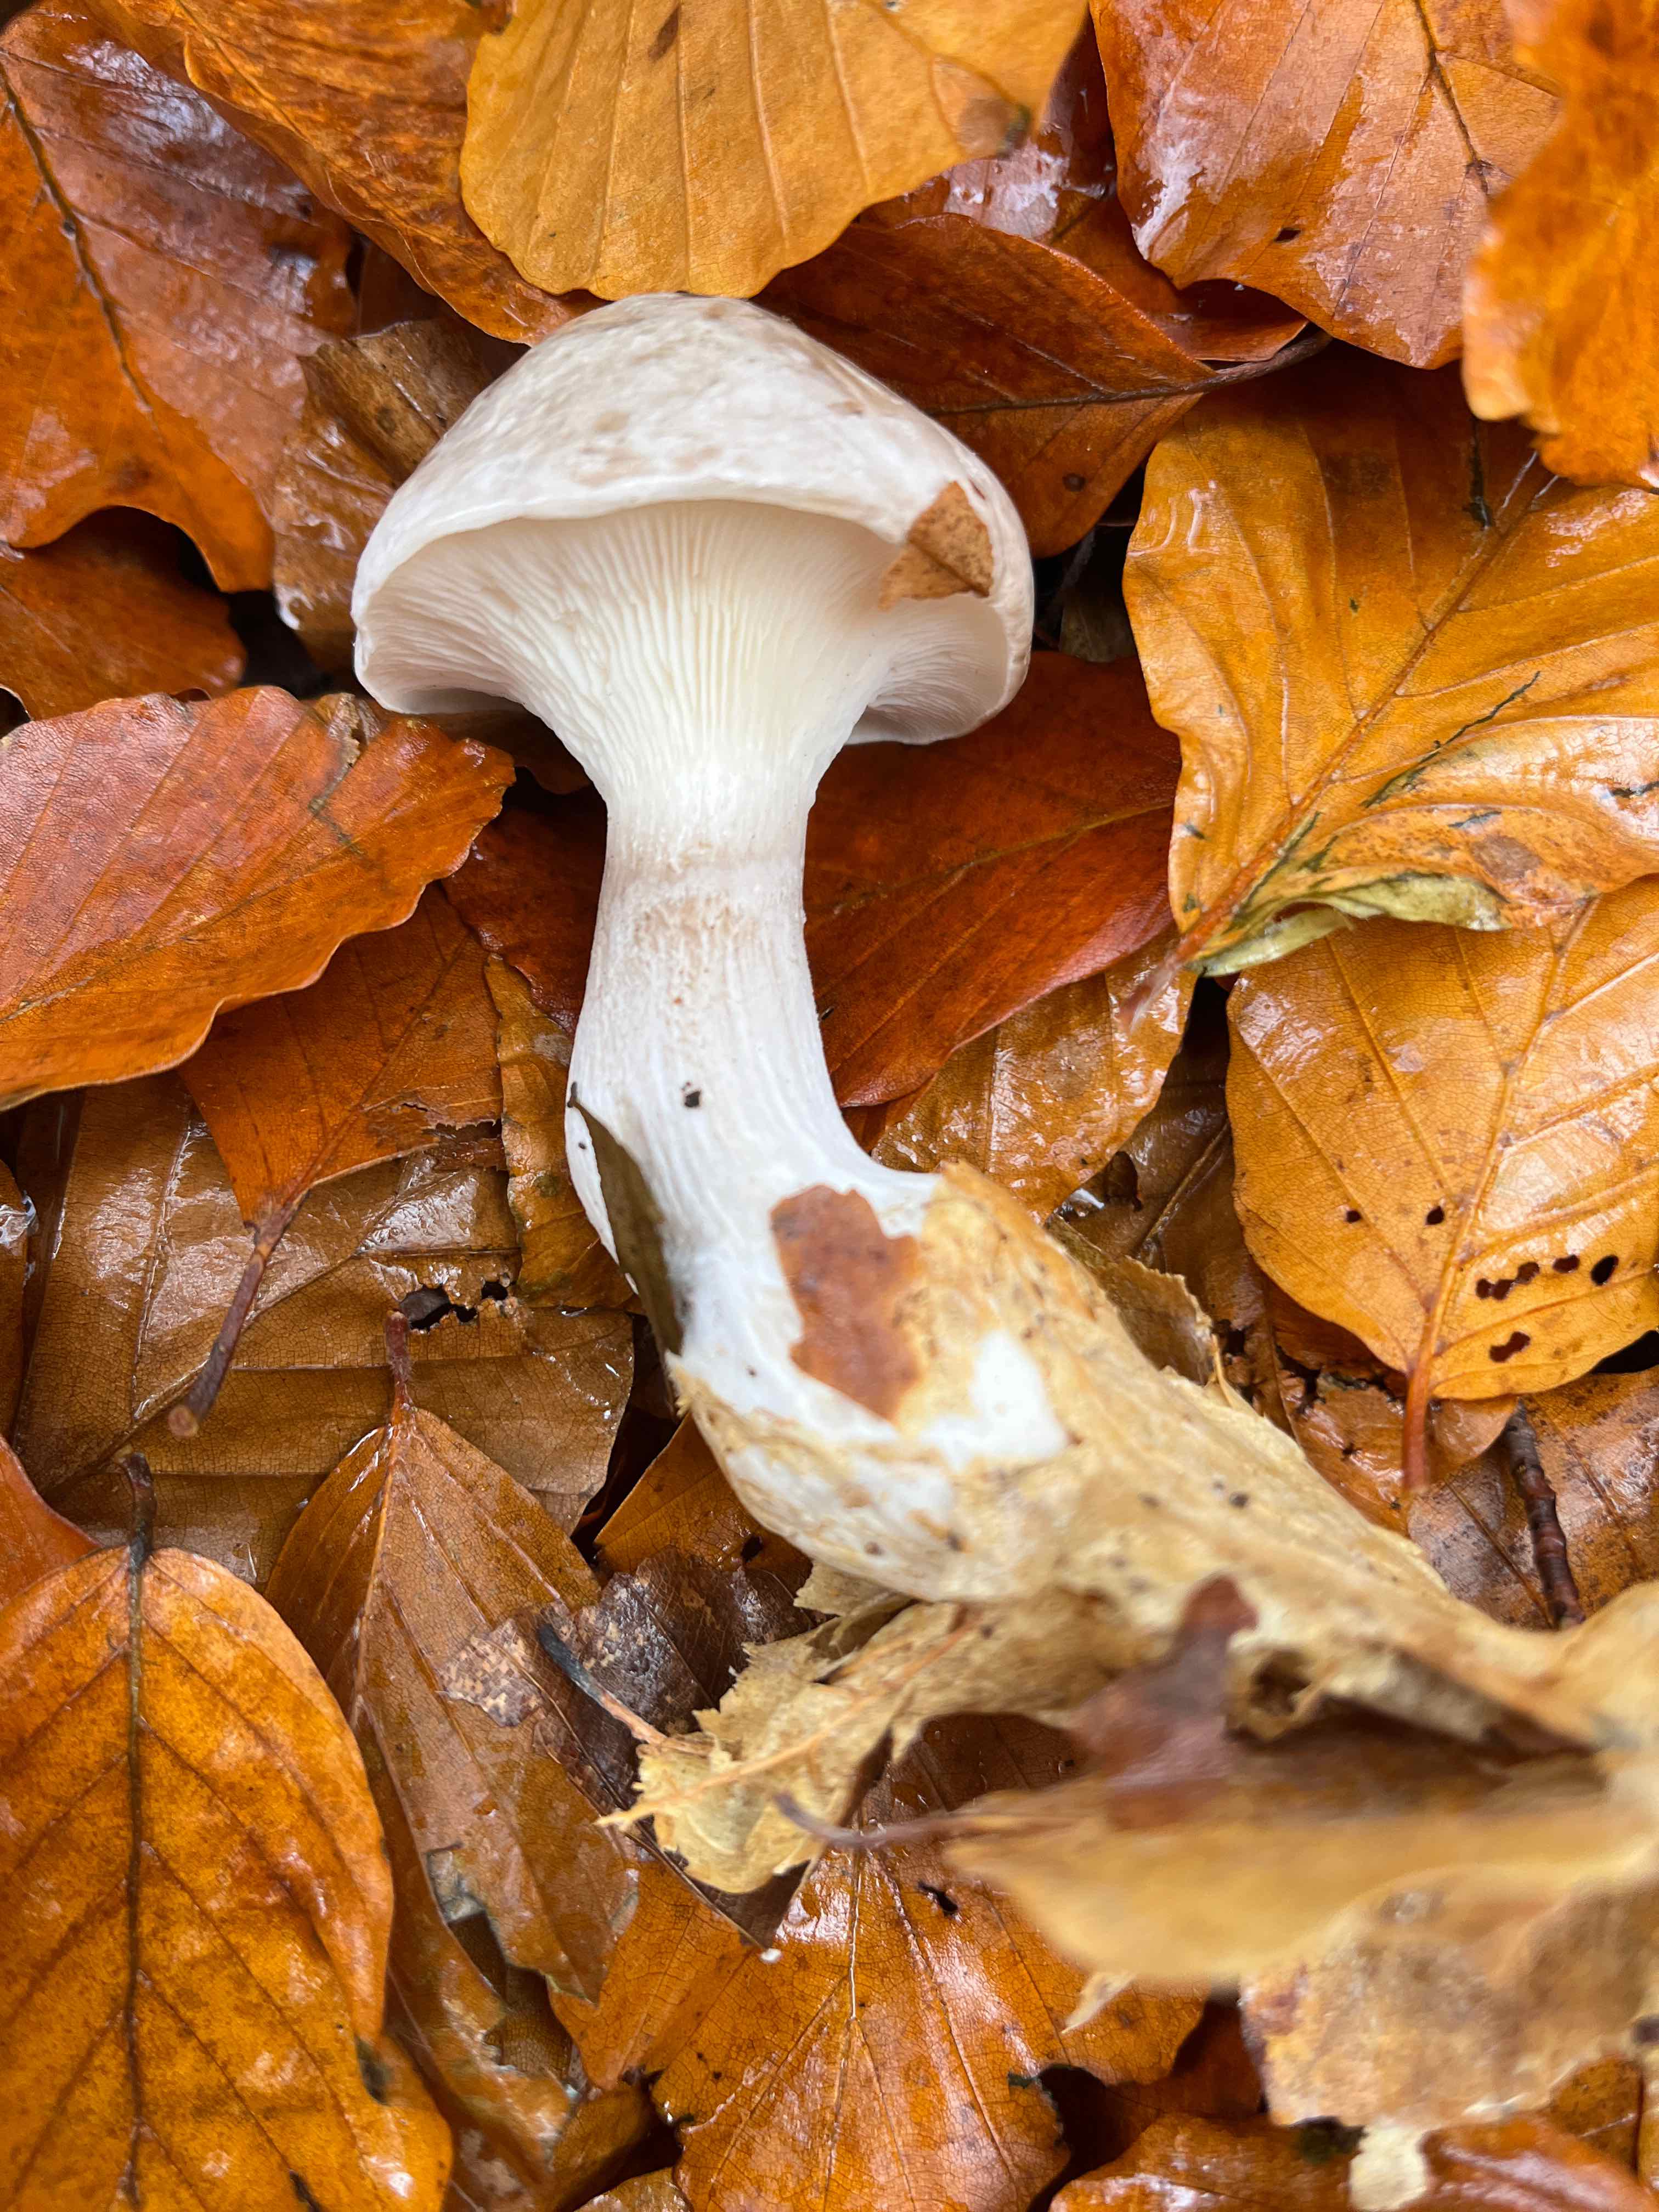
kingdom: Fungi
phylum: Basidiomycota
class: Agaricomycetes
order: Agaricales
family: Tricholomataceae
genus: Clitocybe
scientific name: Clitocybe nebularis
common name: tåge-tragthat
